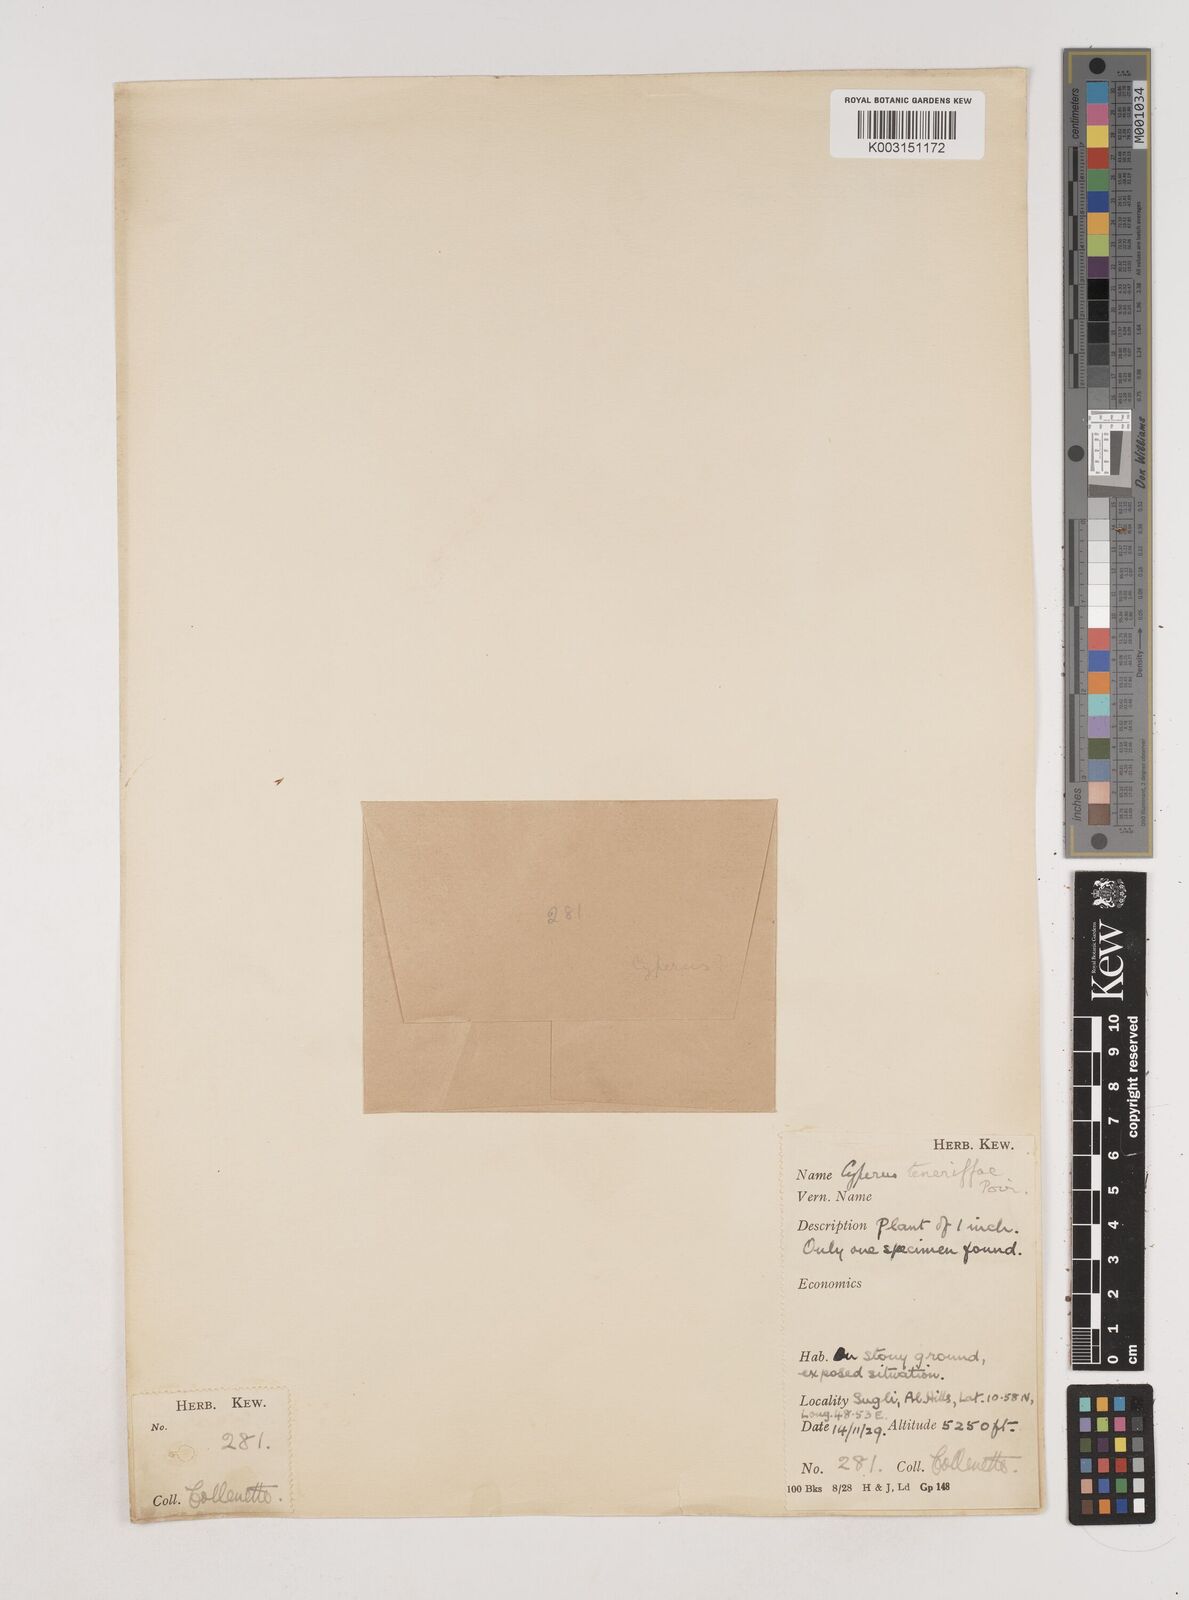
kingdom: Plantae
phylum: Tracheophyta
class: Liliopsida
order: Poales
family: Cyperaceae
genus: Cyperus
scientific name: Cyperus rubicundus
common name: Coco-grass
